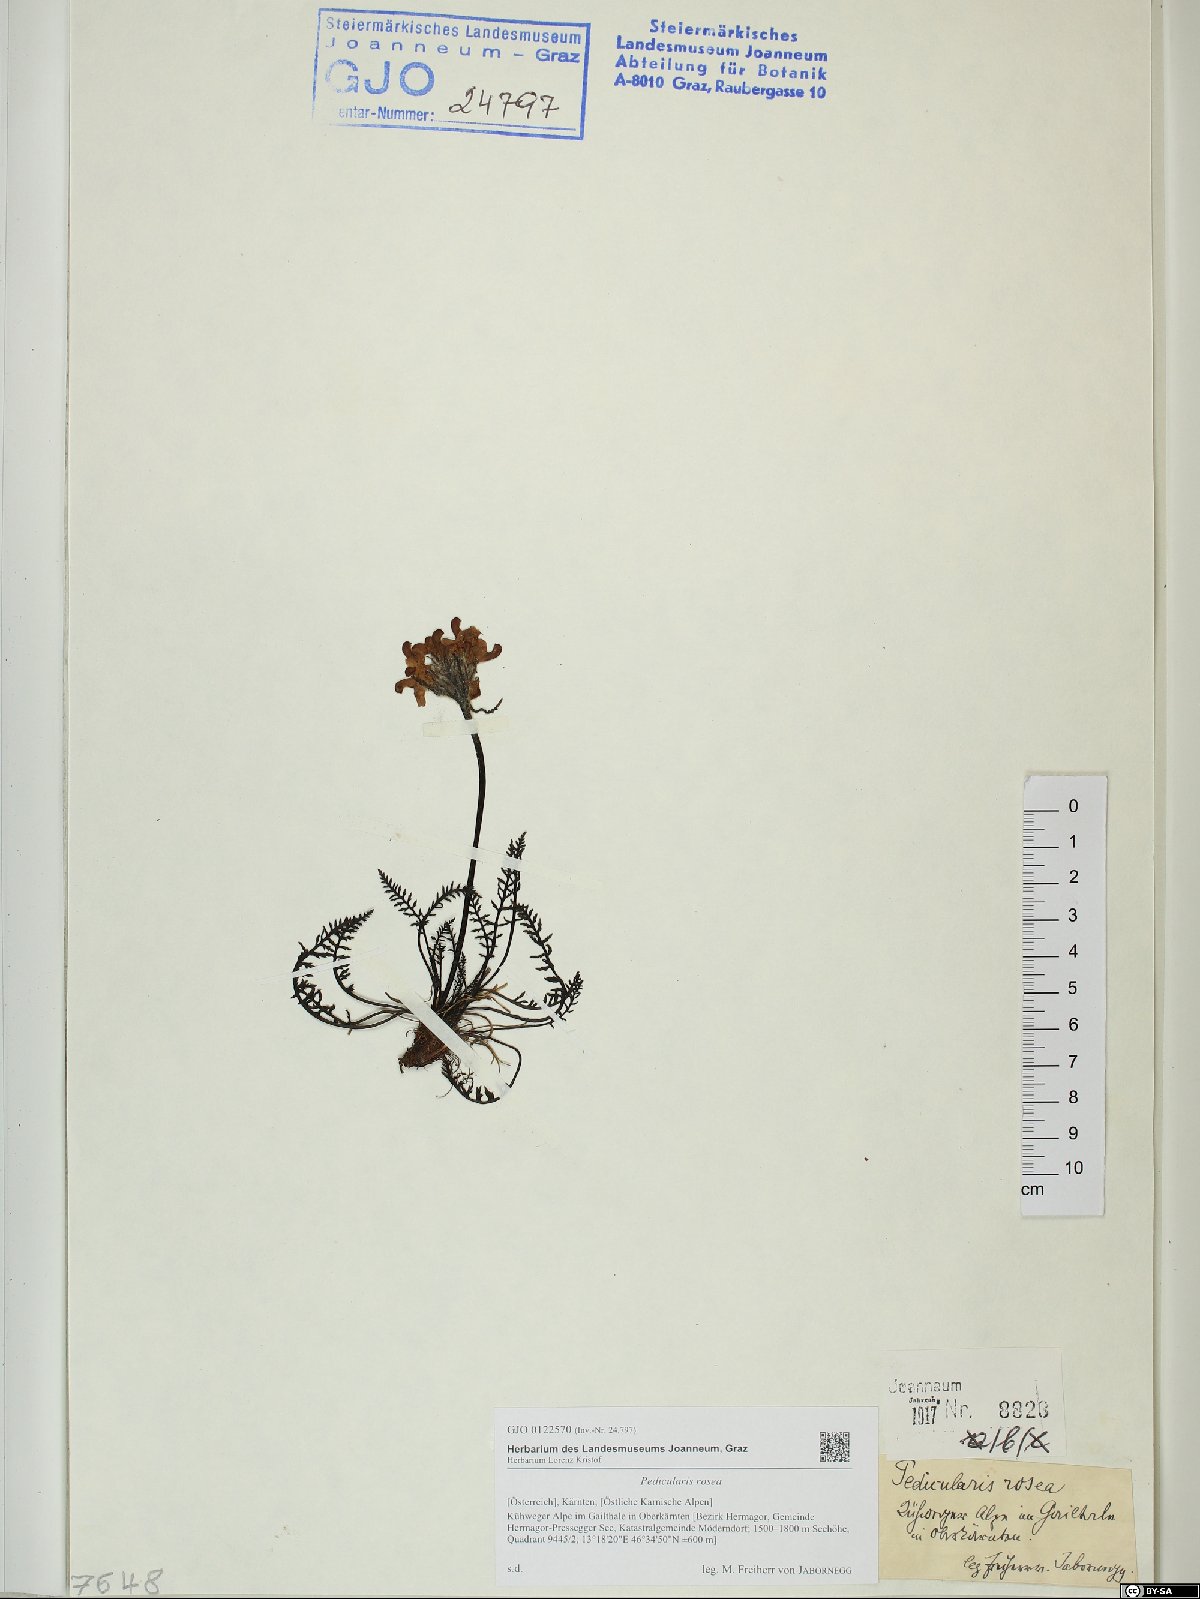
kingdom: Plantae
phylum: Tracheophyta
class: Magnoliopsida
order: Lamiales
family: Orobanchaceae
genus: Pedicularis
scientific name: Pedicularis rosea
